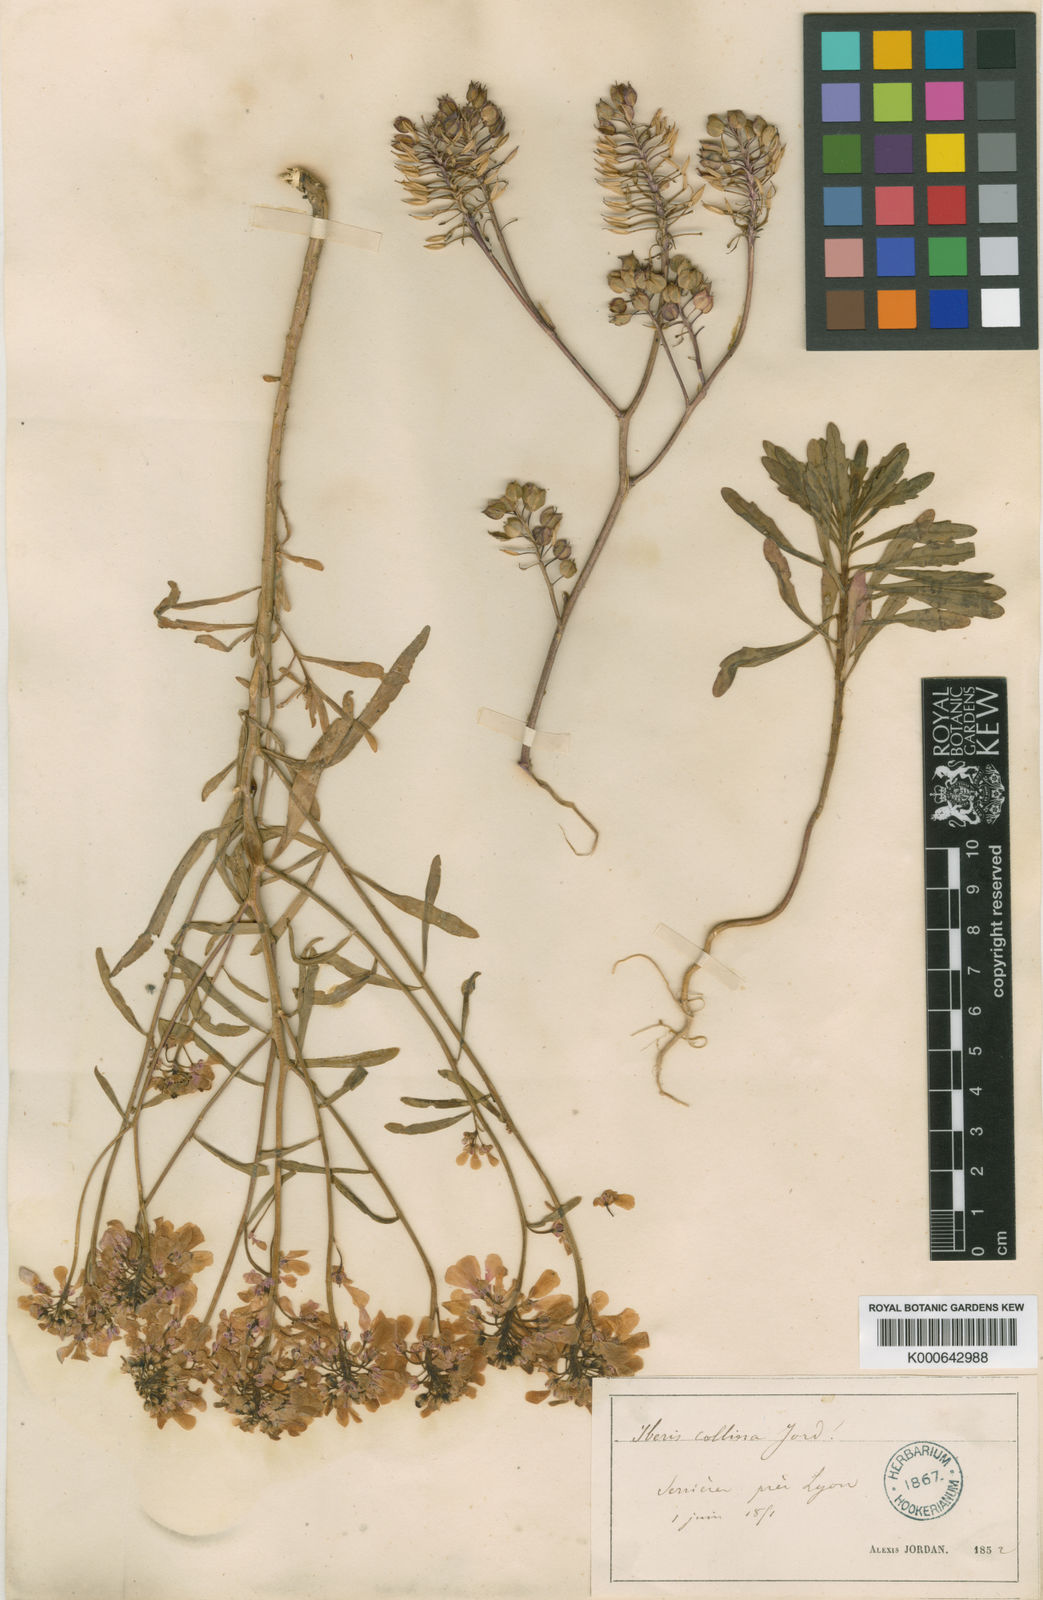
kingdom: Plantae
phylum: Tracheophyta
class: Magnoliopsida
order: Brassicales
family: Brassicaceae
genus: Iberis
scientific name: Iberis linifolia
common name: Candytuft
